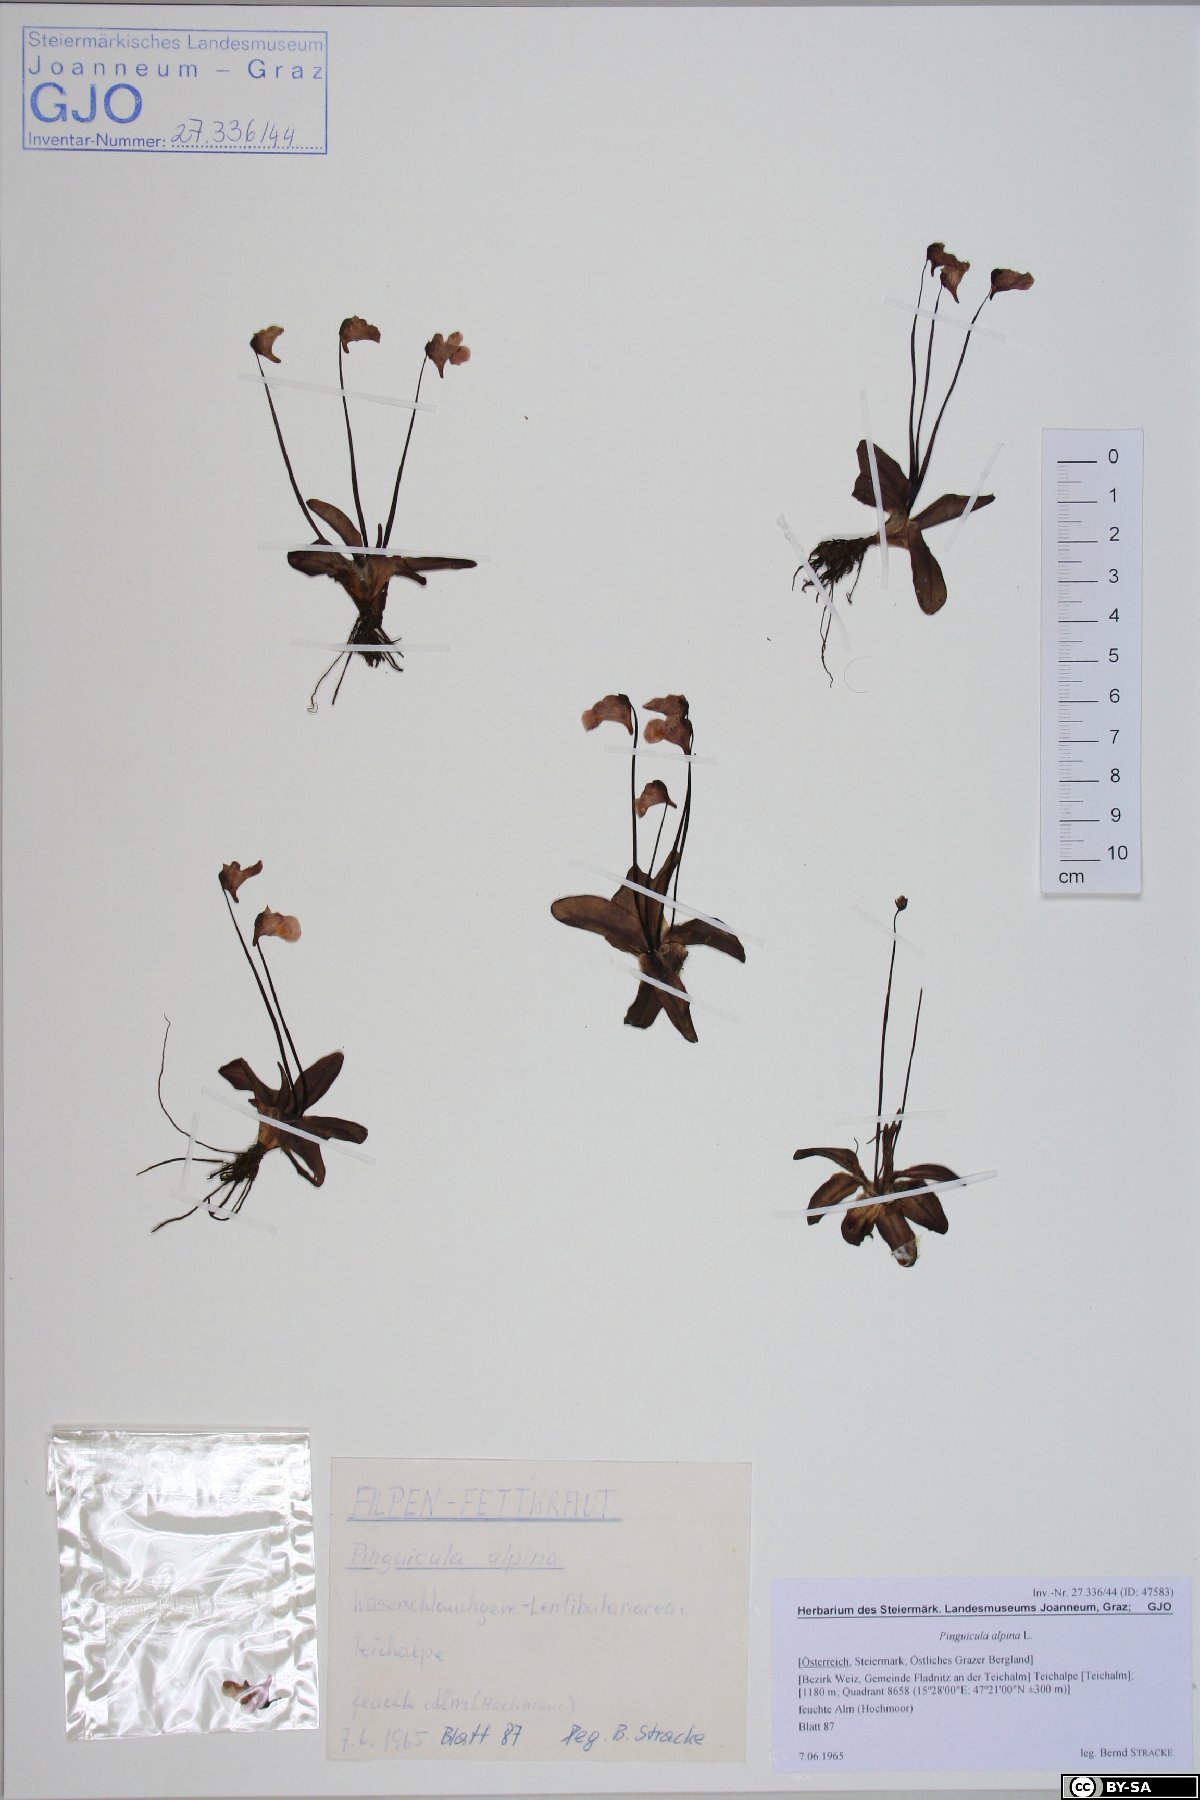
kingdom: Plantae
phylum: Tracheophyta
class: Magnoliopsida
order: Lamiales
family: Lentibulariaceae
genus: Pinguicula
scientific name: Pinguicula alpina
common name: Alpine butterwort
